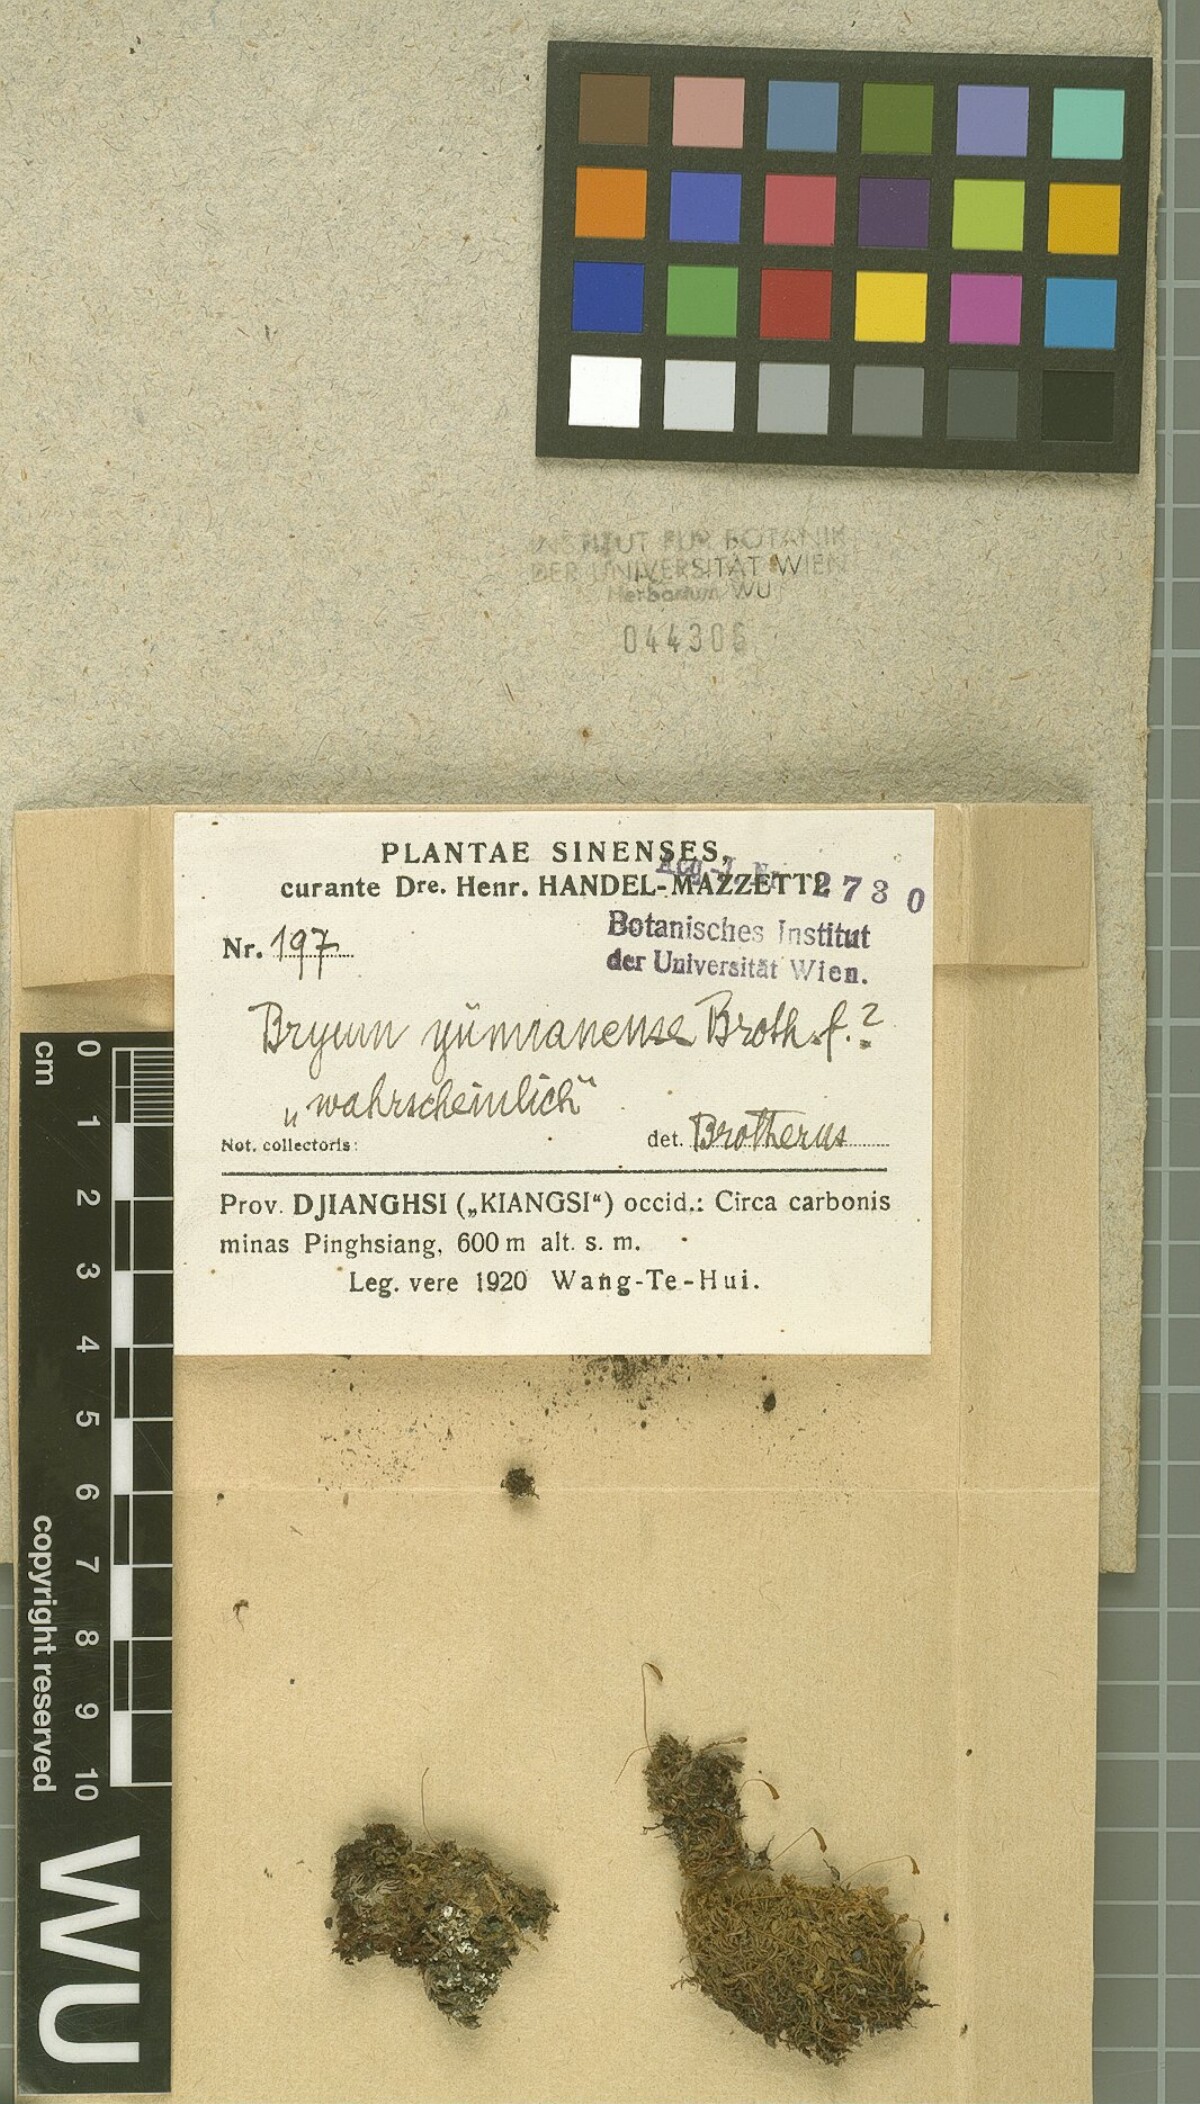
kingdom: Plantae
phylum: Bryophyta
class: Bryopsida
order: Bryales
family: Bryaceae
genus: Rosulabryum
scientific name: Rosulabryum capillare
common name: Capillary thread-moss
